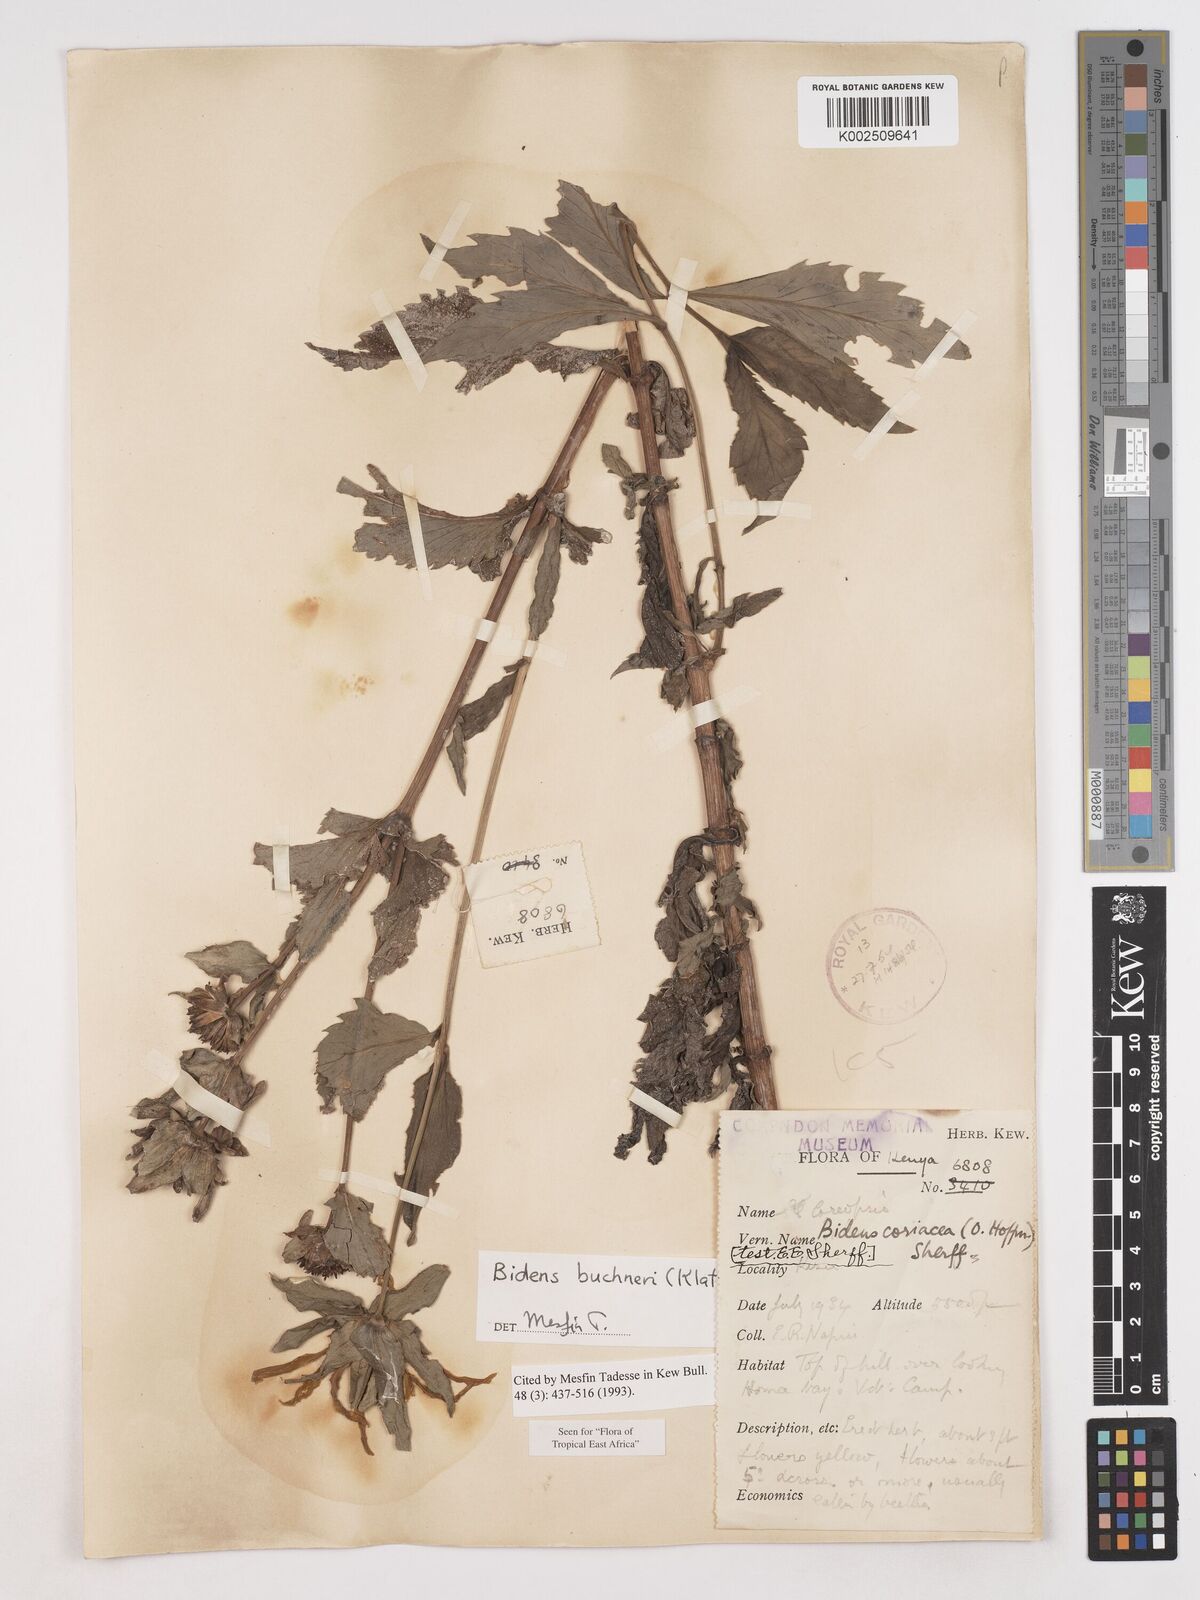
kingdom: Plantae
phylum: Tracheophyta
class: Magnoliopsida
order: Asterales
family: Asteraceae
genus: Bidens
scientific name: Bidens buchneri
